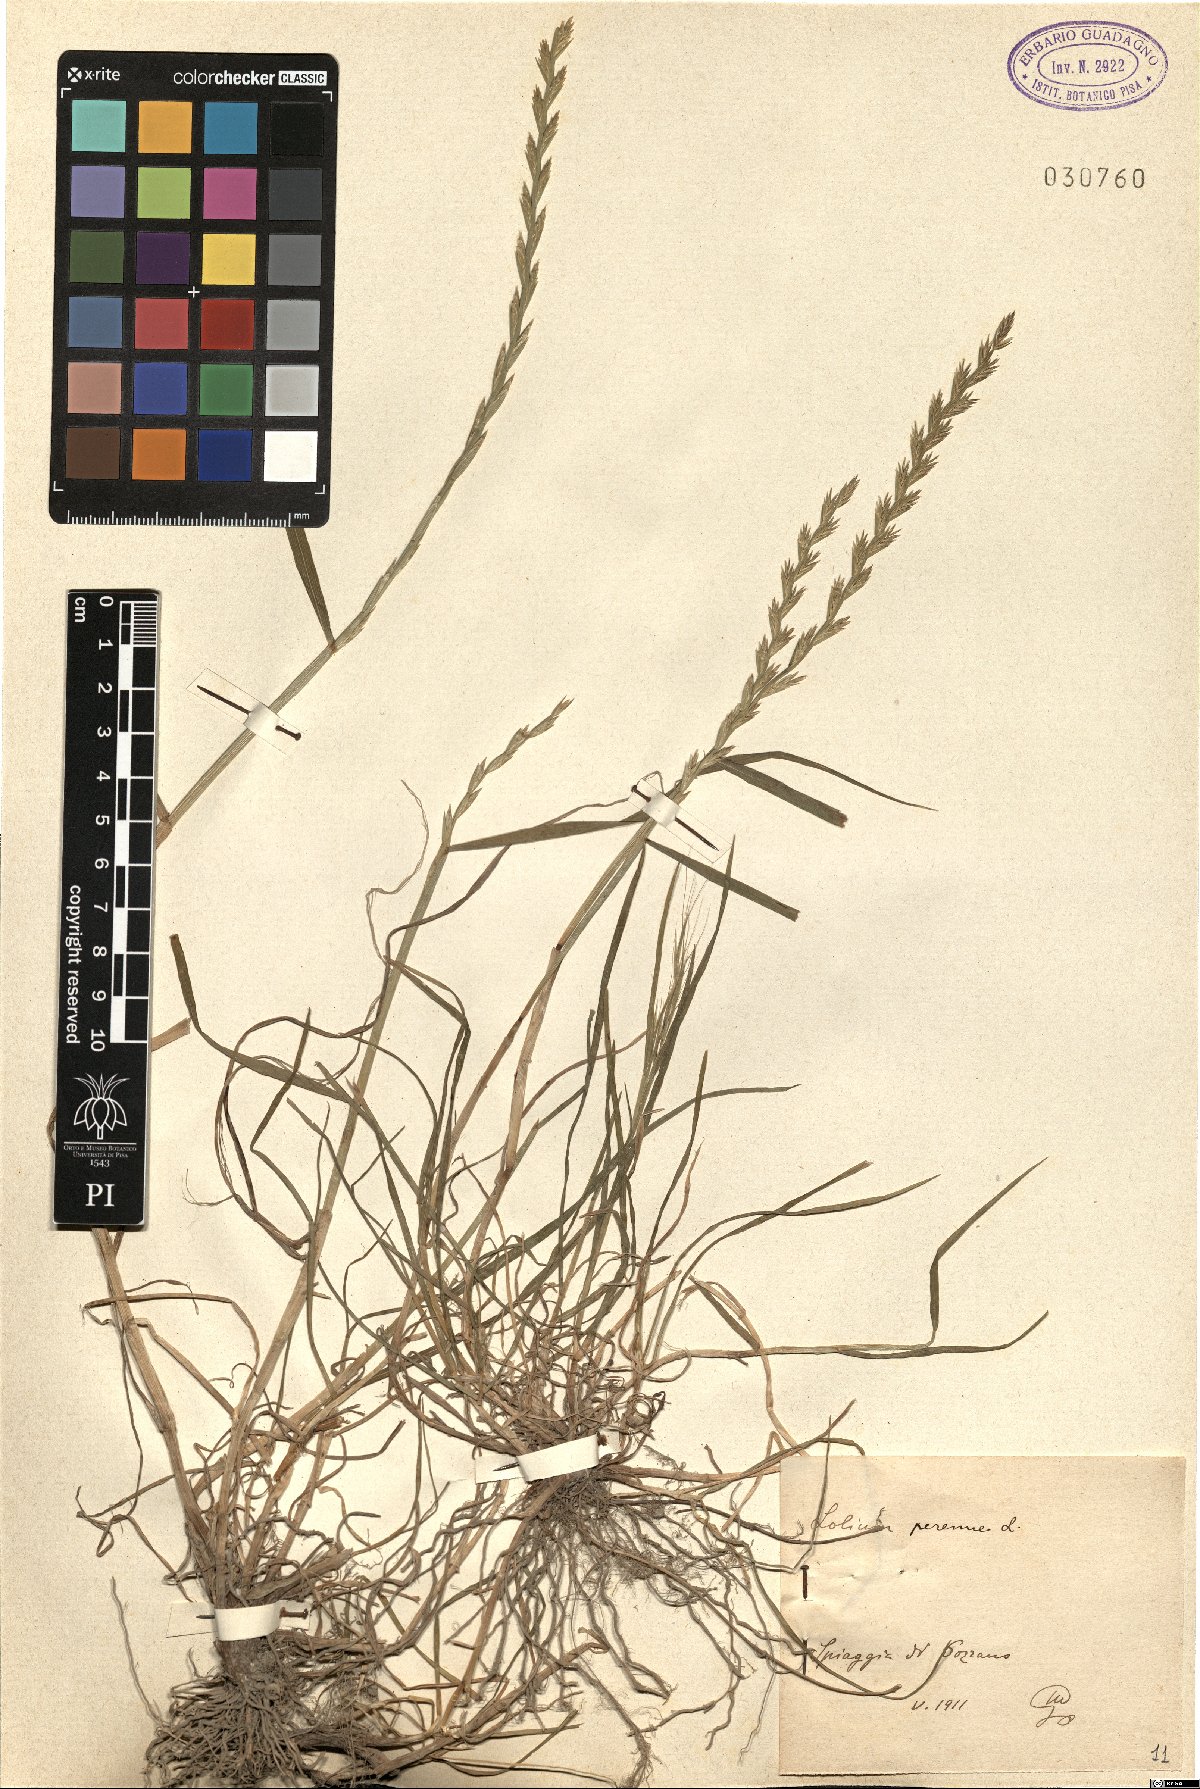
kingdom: Plantae
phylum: Tracheophyta
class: Liliopsida
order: Poales
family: Poaceae
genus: Lolium
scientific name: Lolium perenne
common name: Perennial ryegrass
